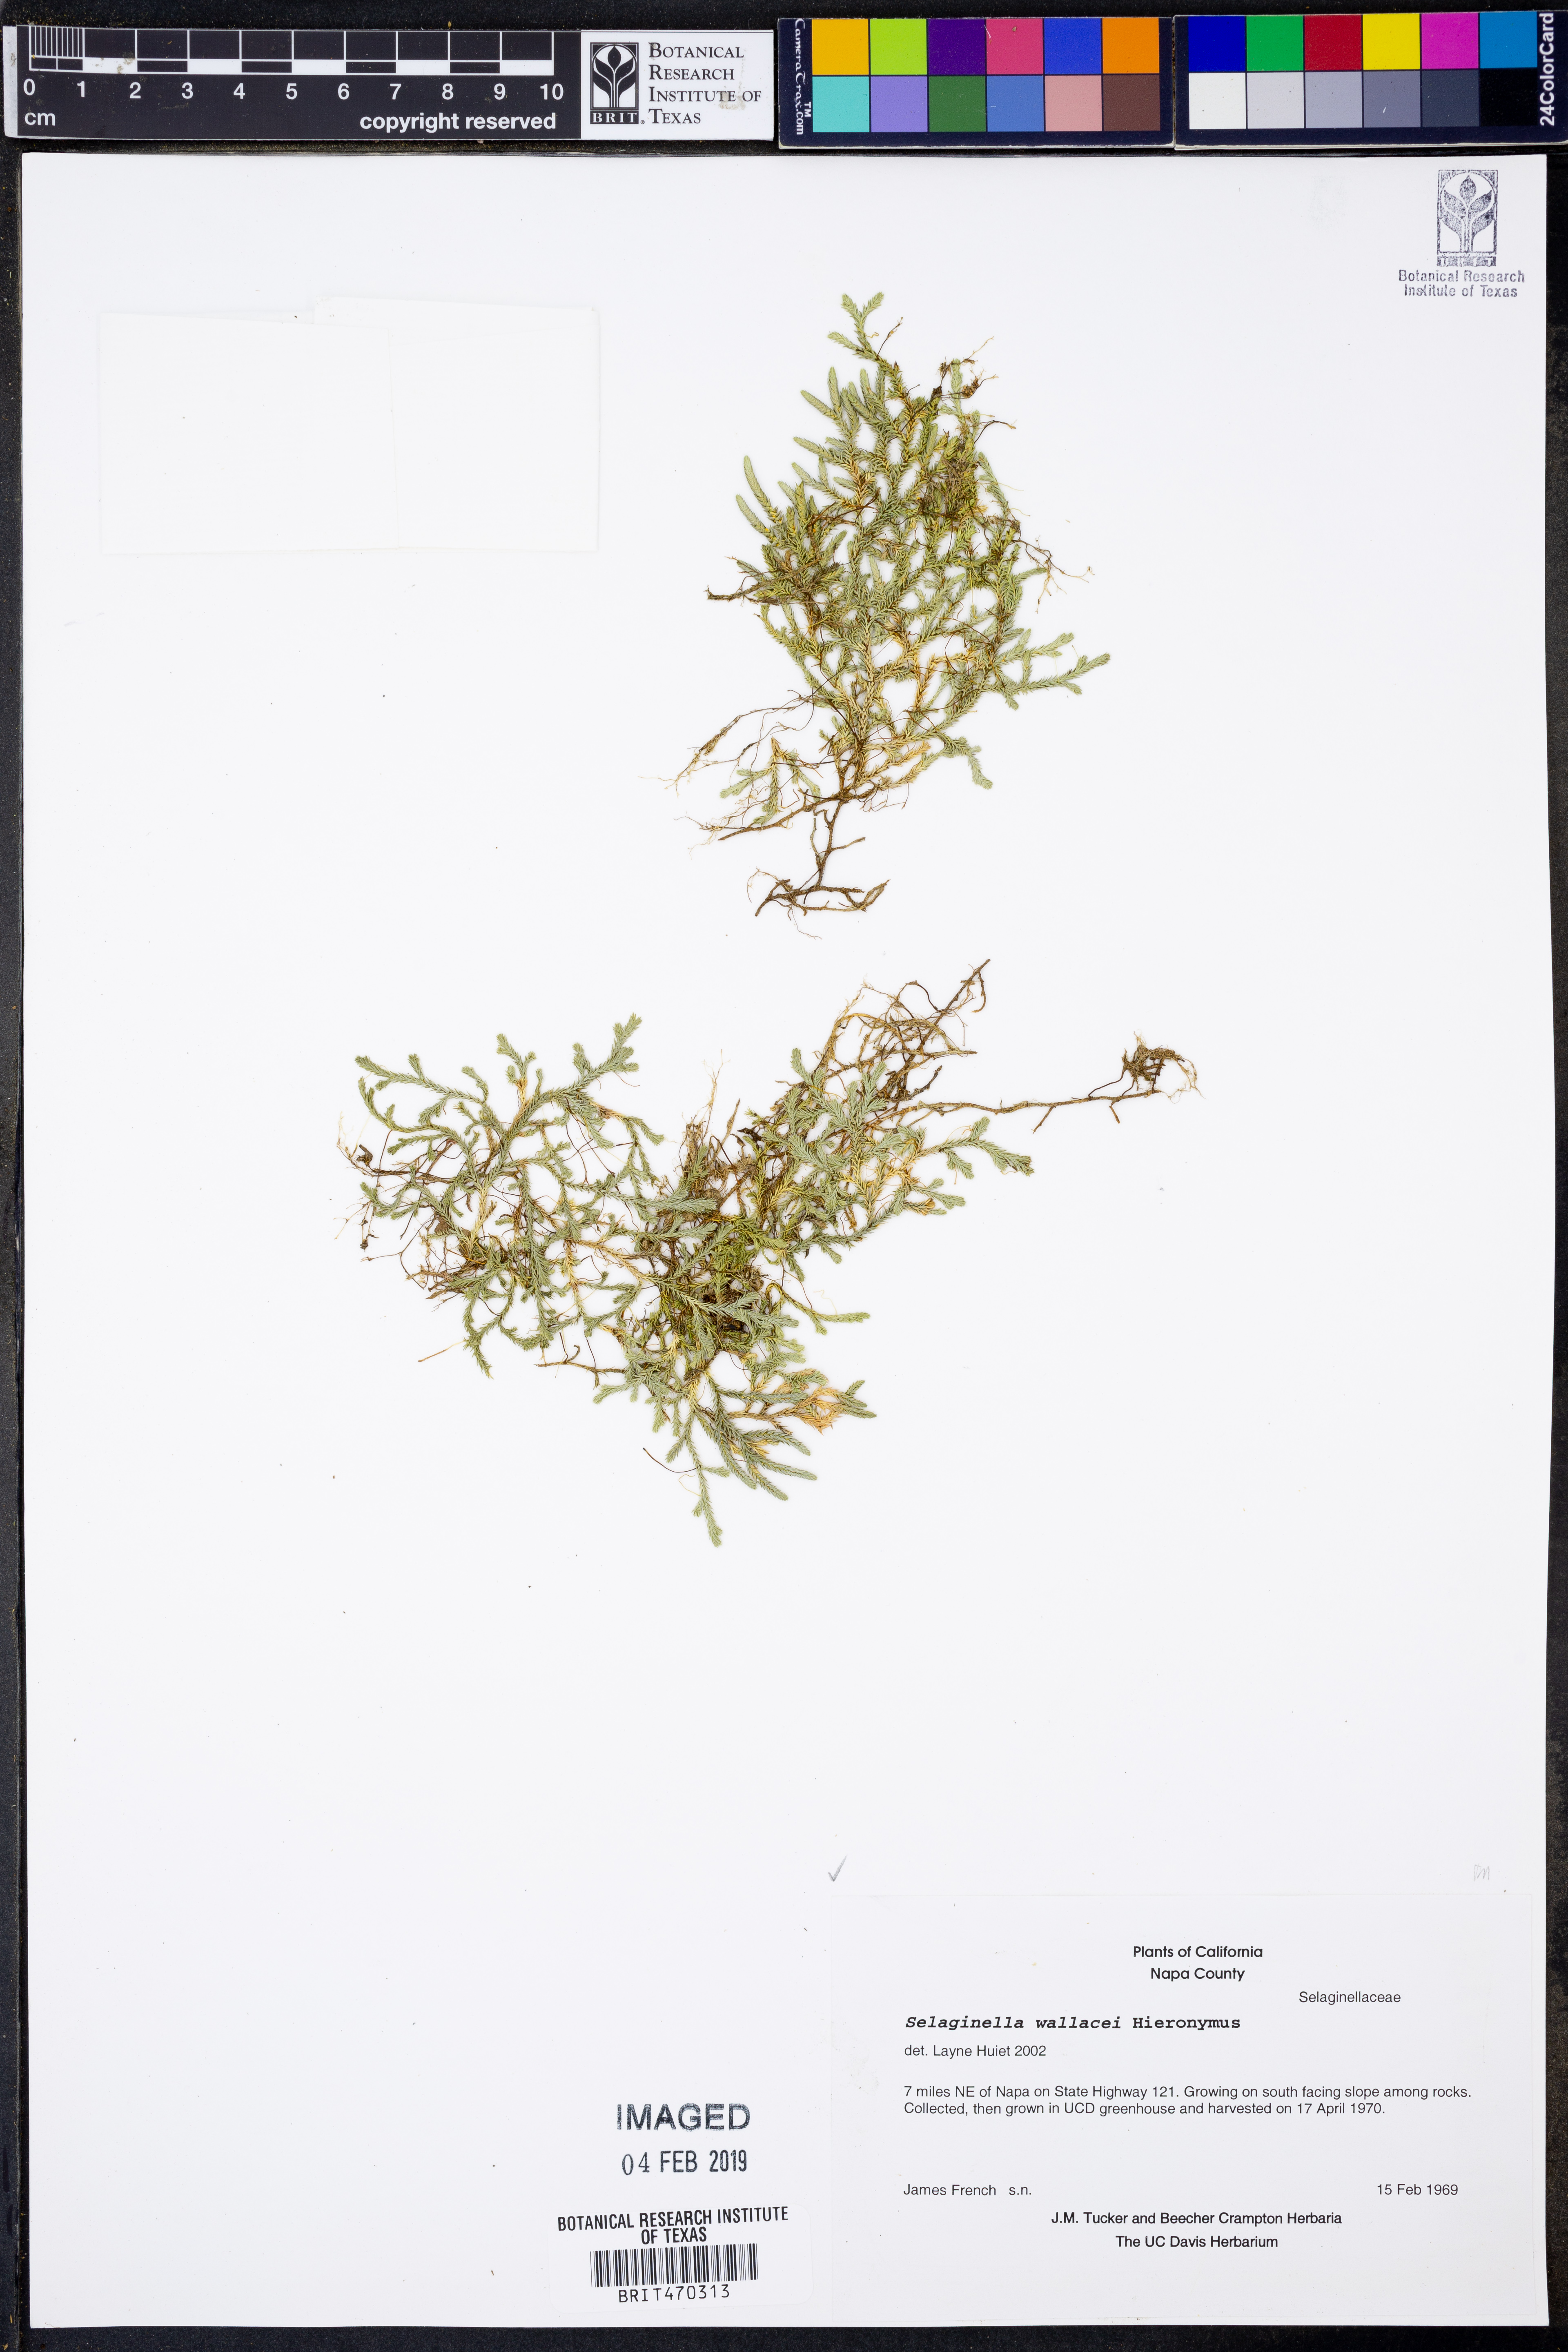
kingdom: Plantae
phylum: Tracheophyta
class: Lycopodiopsida
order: Selaginellales
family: Selaginellaceae
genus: Selaginella
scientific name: Selaginella wallacei
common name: Wallace's selaginella
